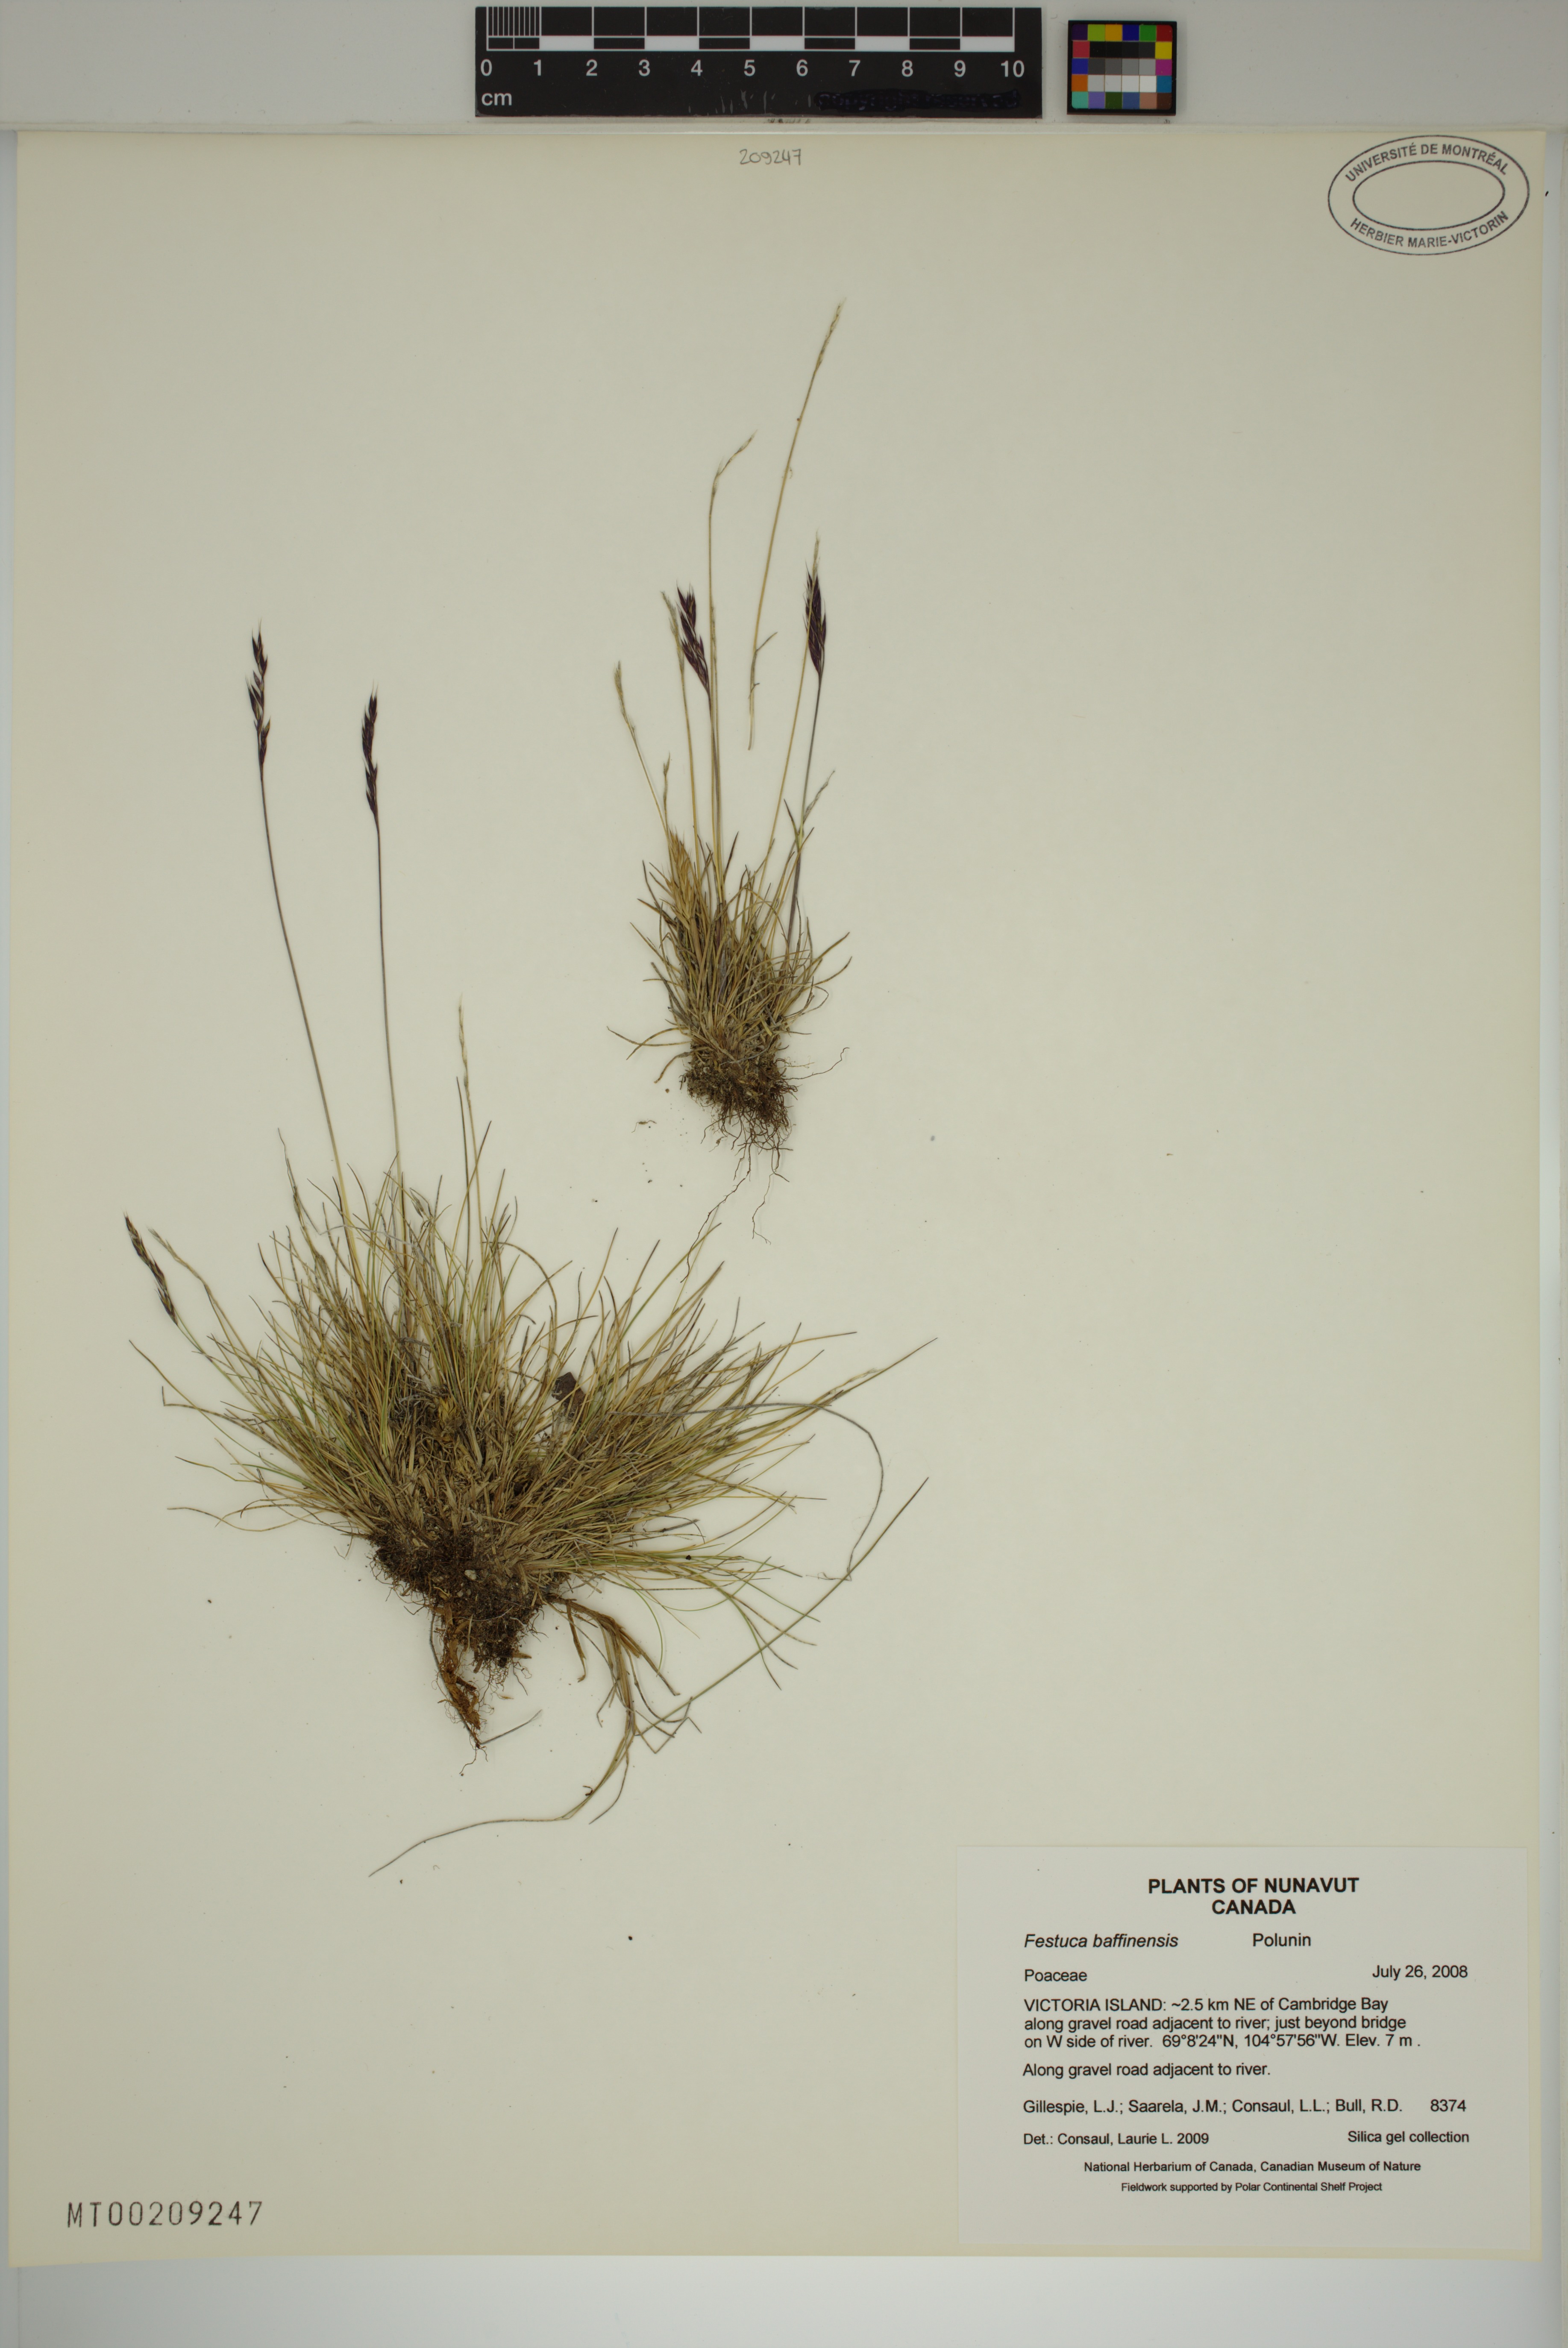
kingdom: Plantae
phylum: Tracheophyta
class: Liliopsida
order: Poales
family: Poaceae
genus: Festuca
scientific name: Festuca baffinensis
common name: Baffin island fescue
